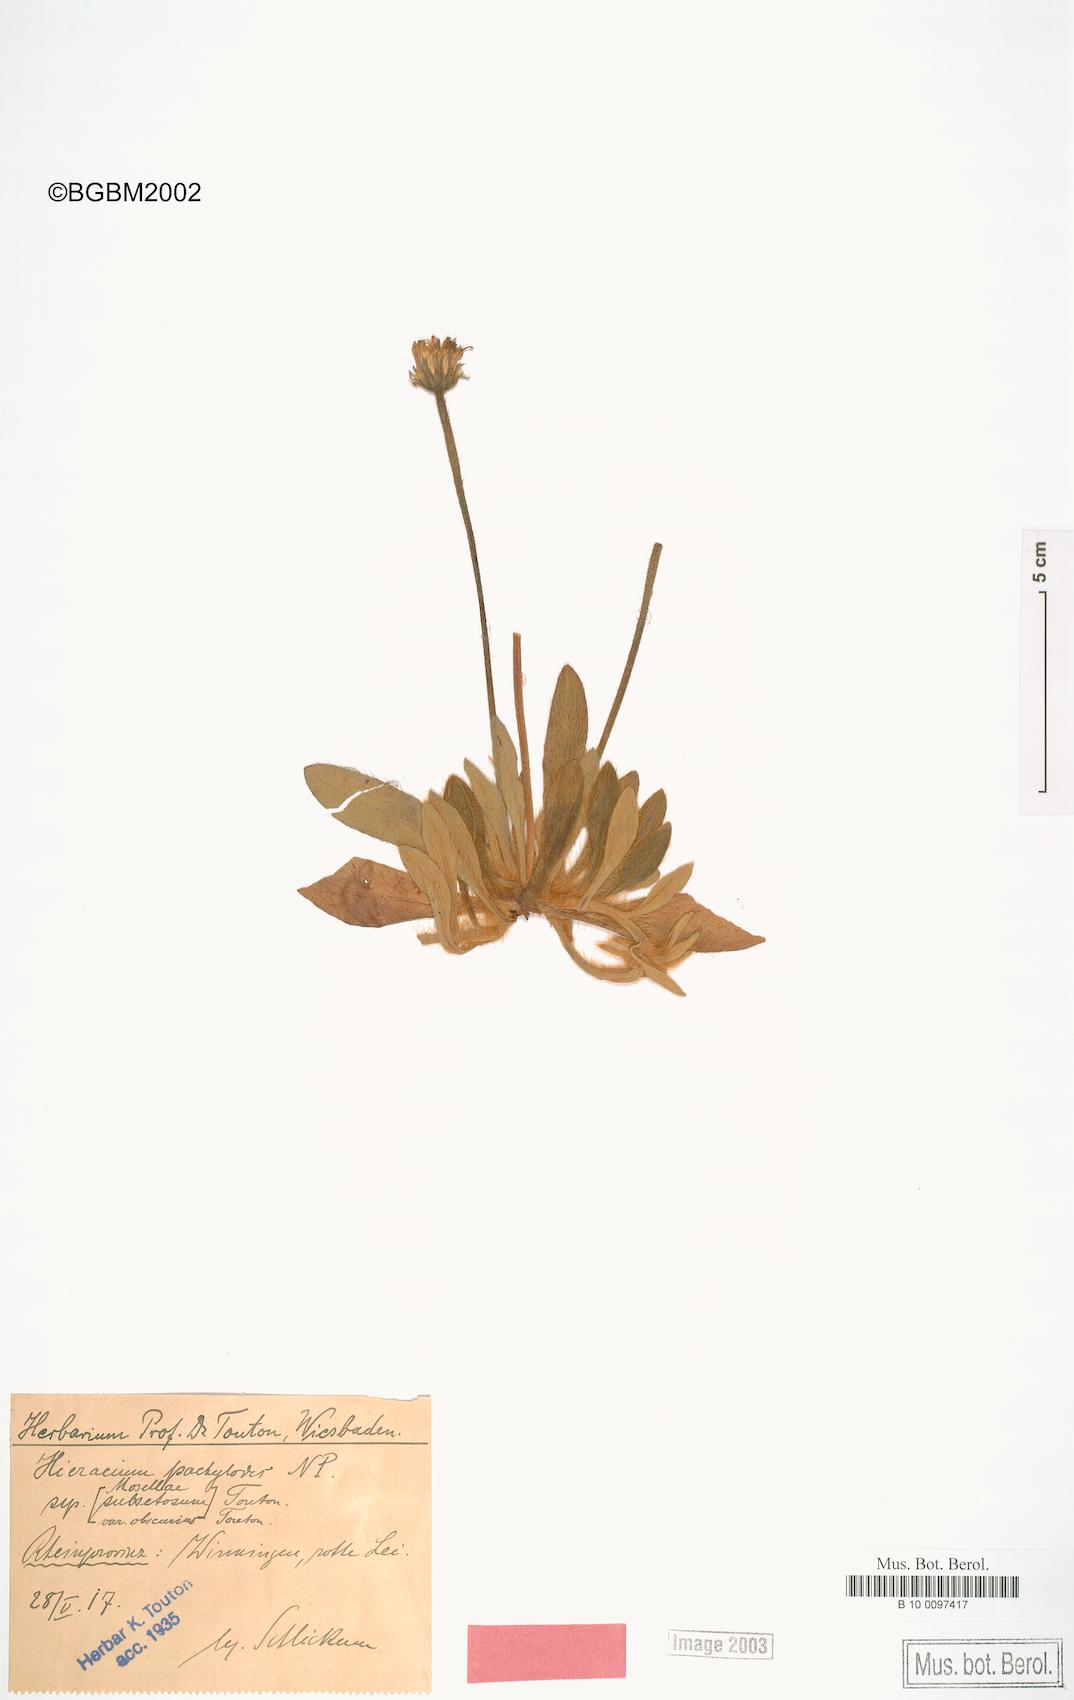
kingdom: Plantae
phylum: Tracheophyta
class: Magnoliopsida
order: Asterales
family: Asteraceae
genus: Pilosella
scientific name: Pilosella longisquama
